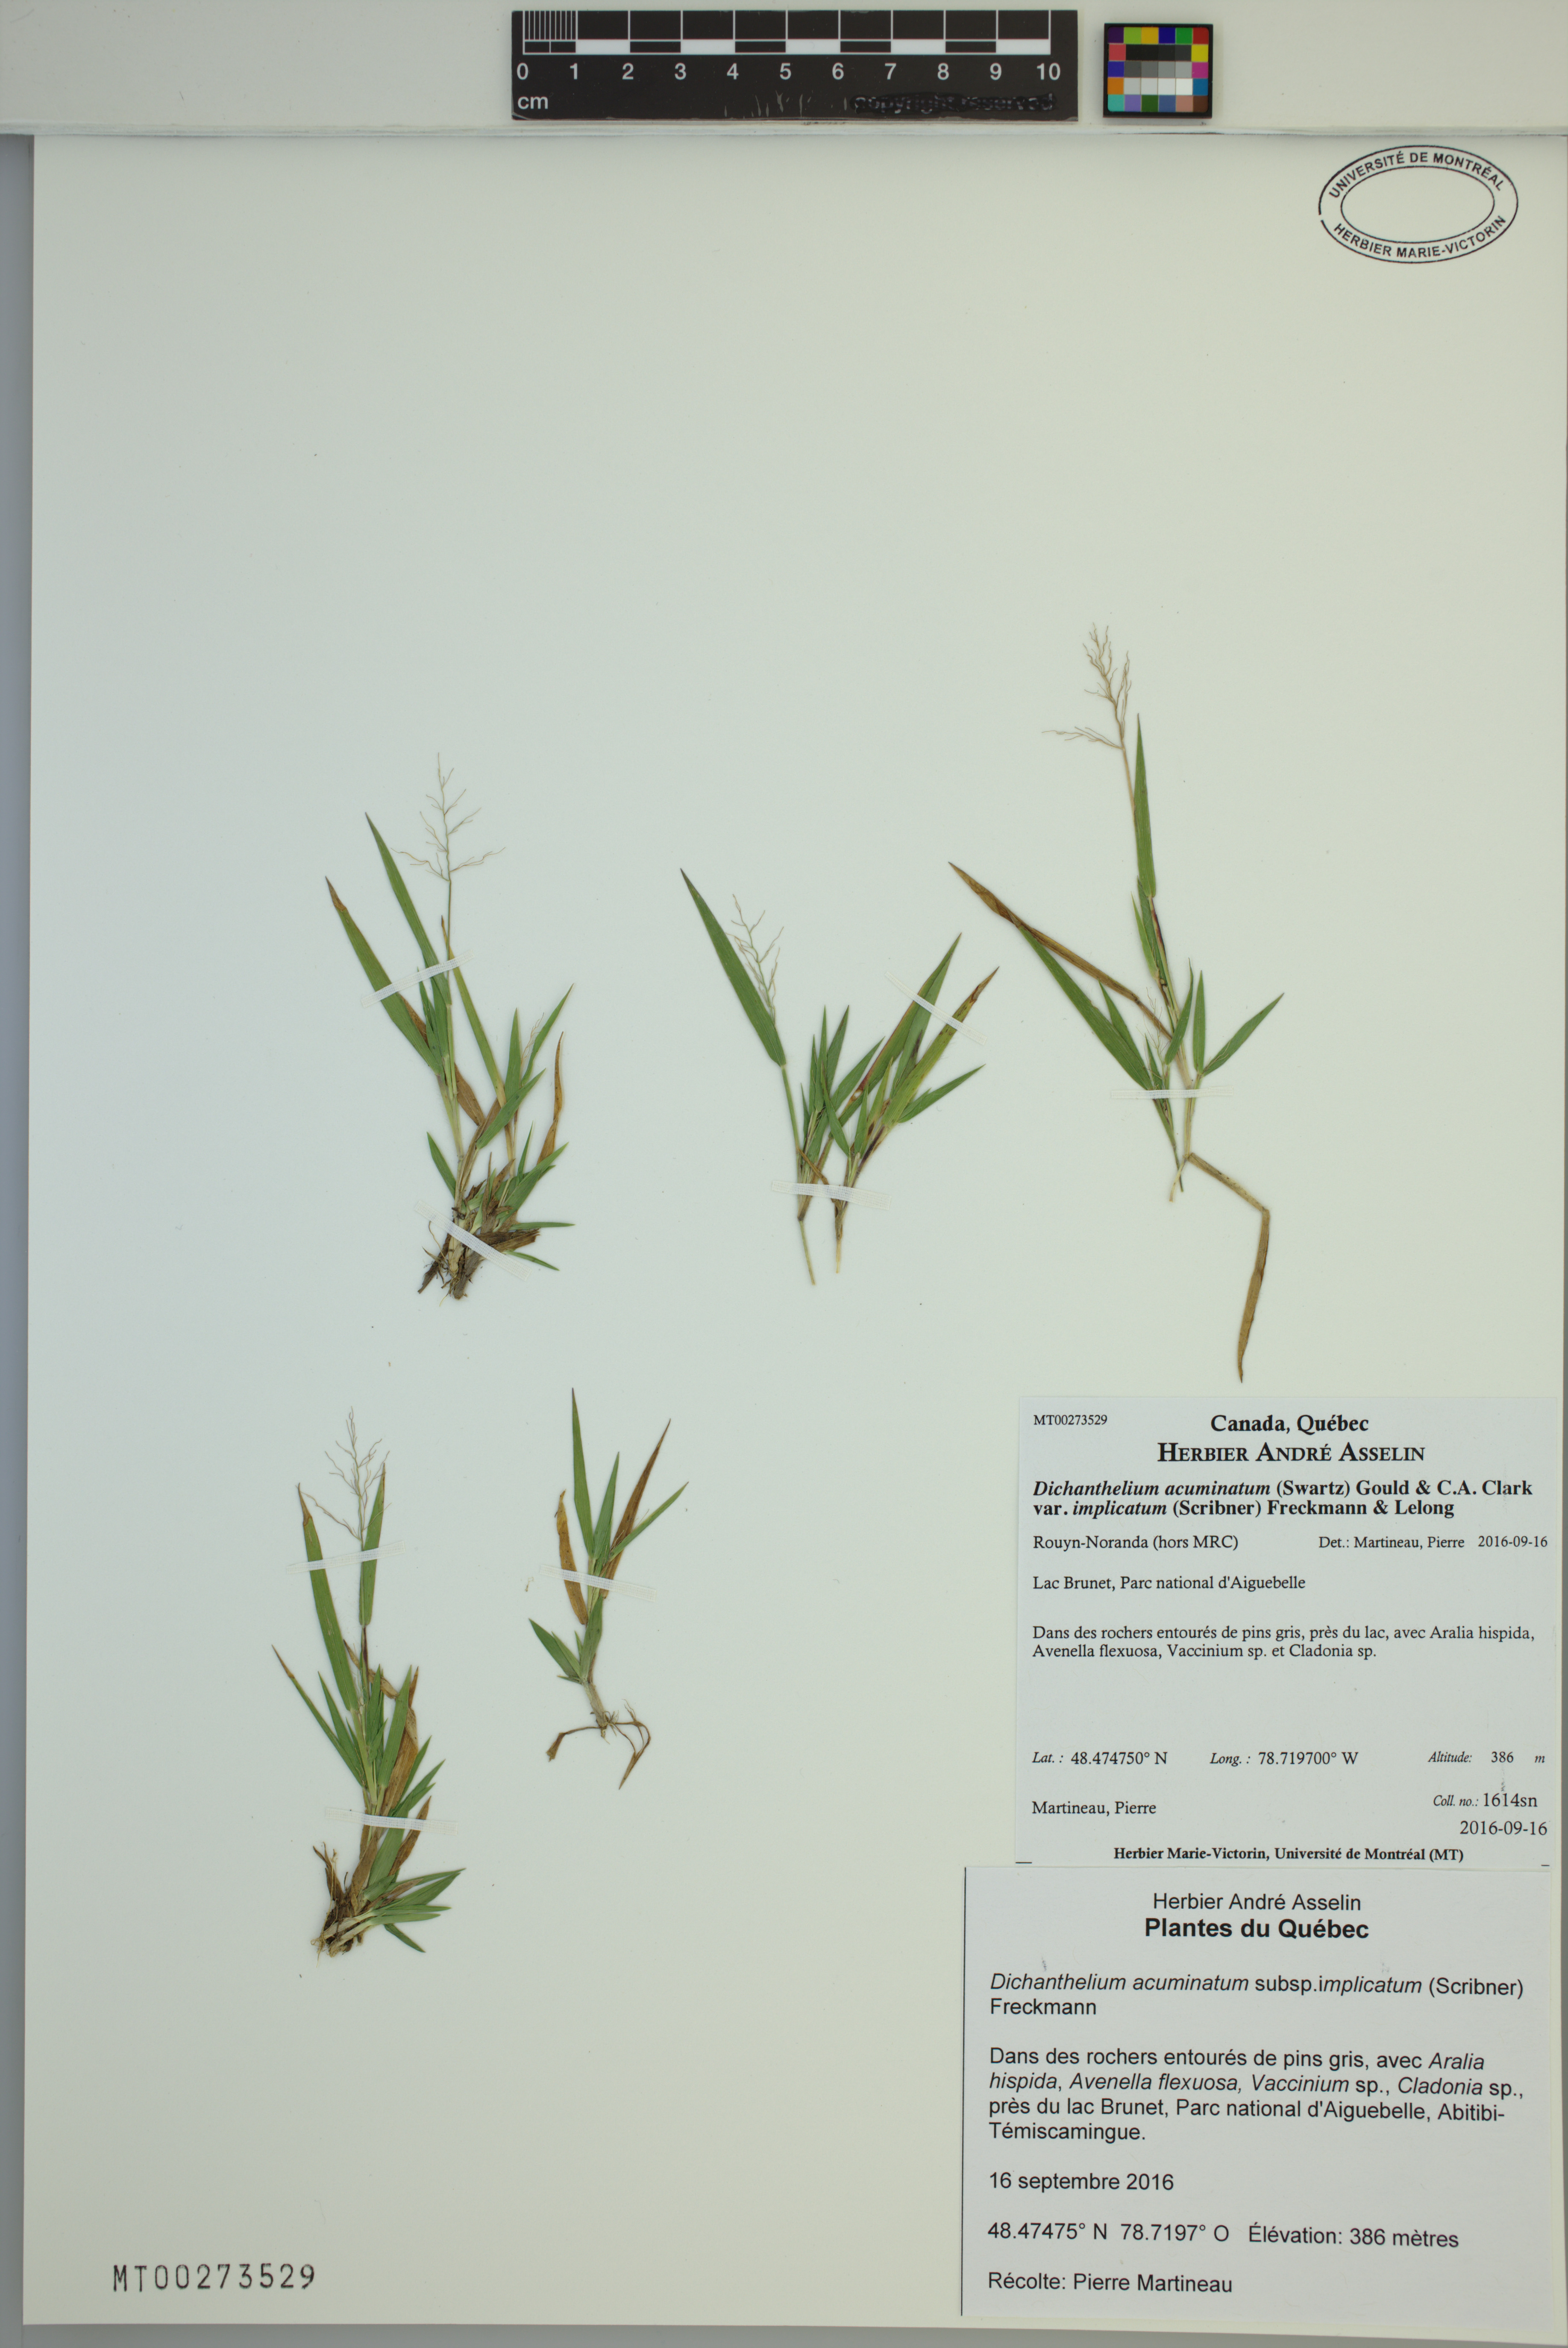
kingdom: Plantae
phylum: Tracheophyta
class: Liliopsida
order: Poales
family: Poaceae
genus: Dichanthelium
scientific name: Dichanthelium implicatum
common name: Slender-stemmed panicgrass
